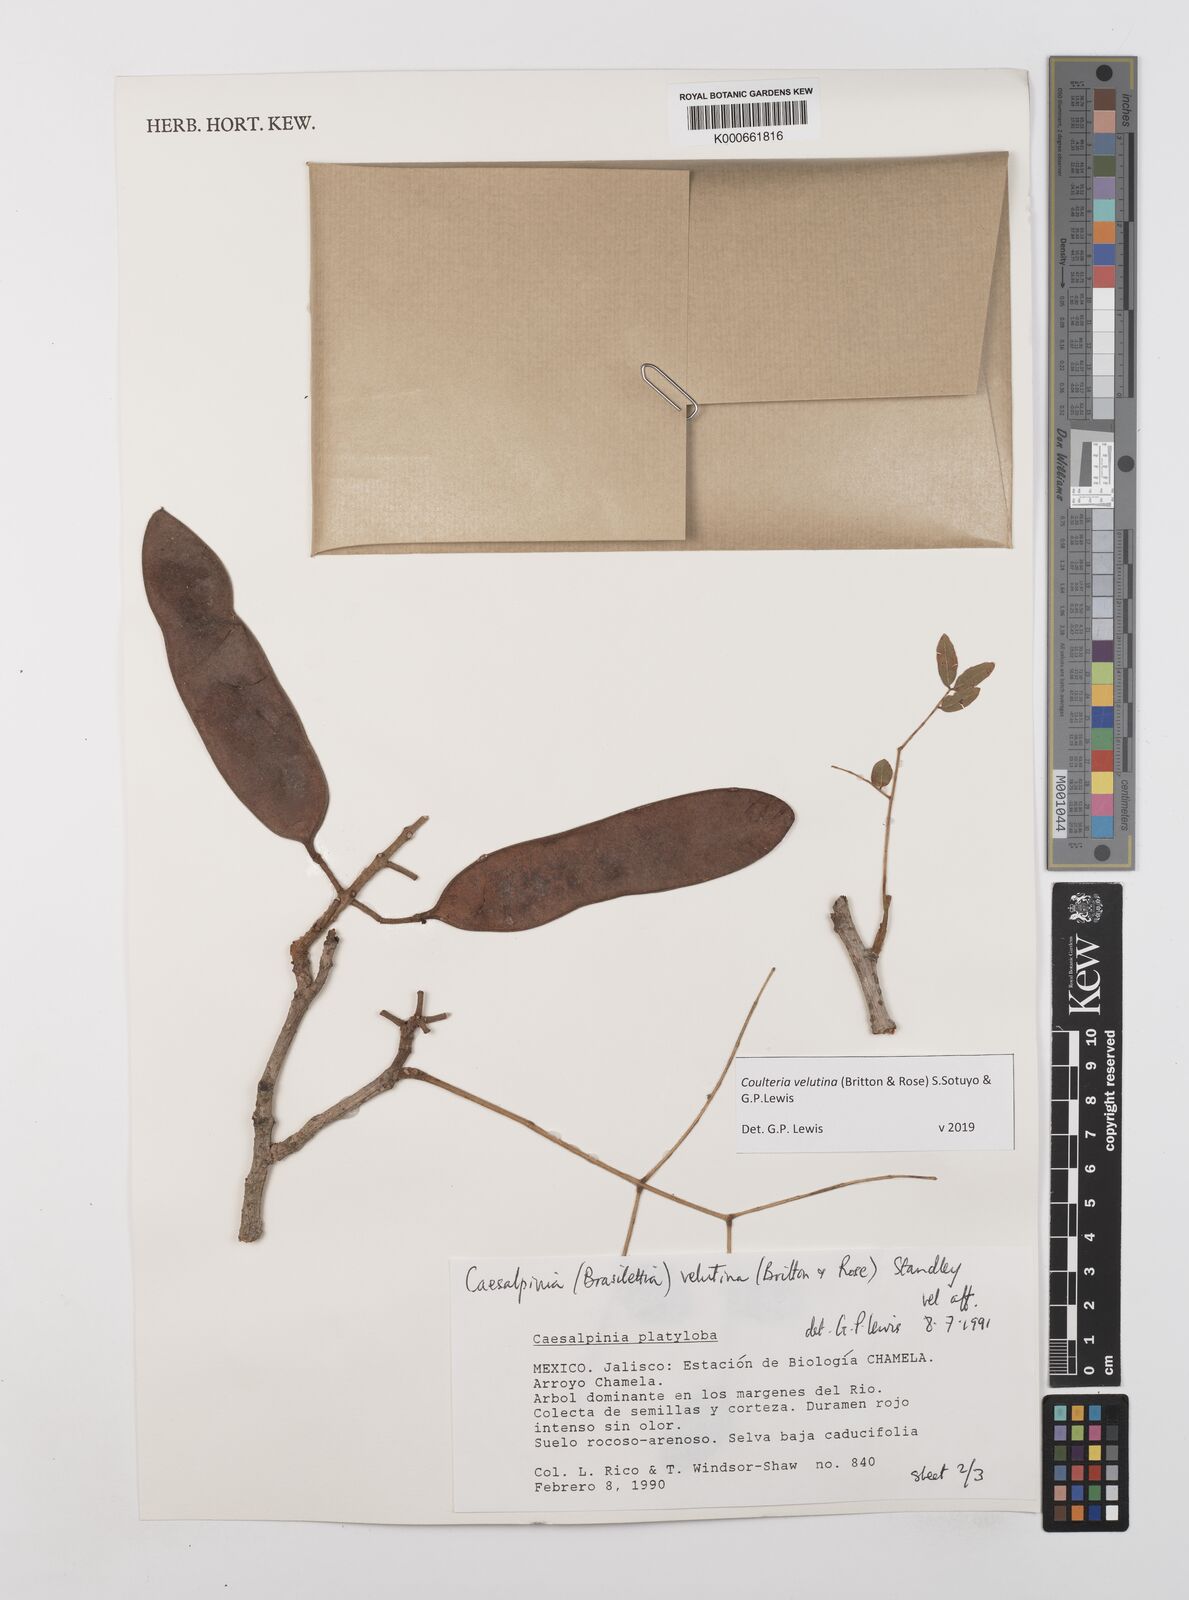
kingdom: Plantae
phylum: Tracheophyta
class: Magnoliopsida
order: Fabales
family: Fabaceae
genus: Coulteria
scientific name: Coulteria velutina
